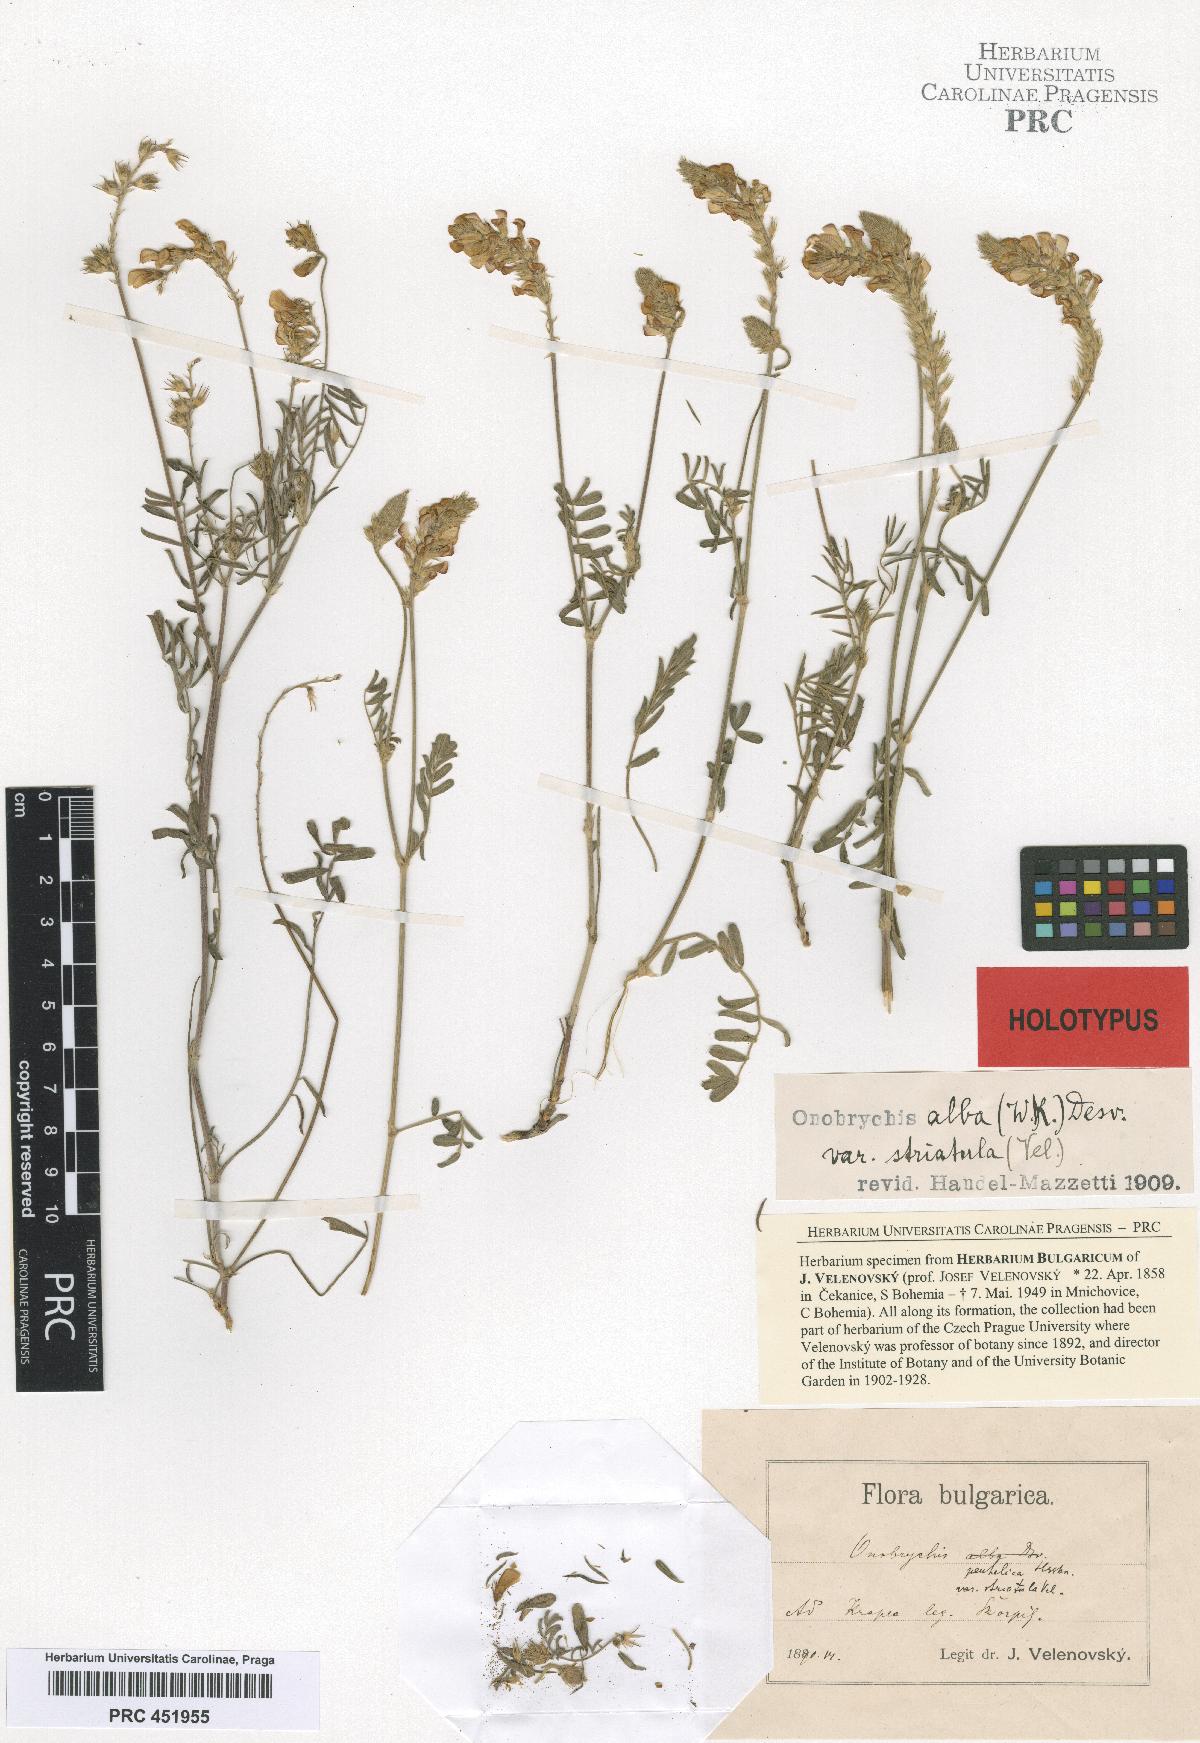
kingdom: Plantae
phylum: Tracheophyta
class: Magnoliopsida
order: Fabales
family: Fabaceae
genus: Onobrychis
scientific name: Onobrychis alba
